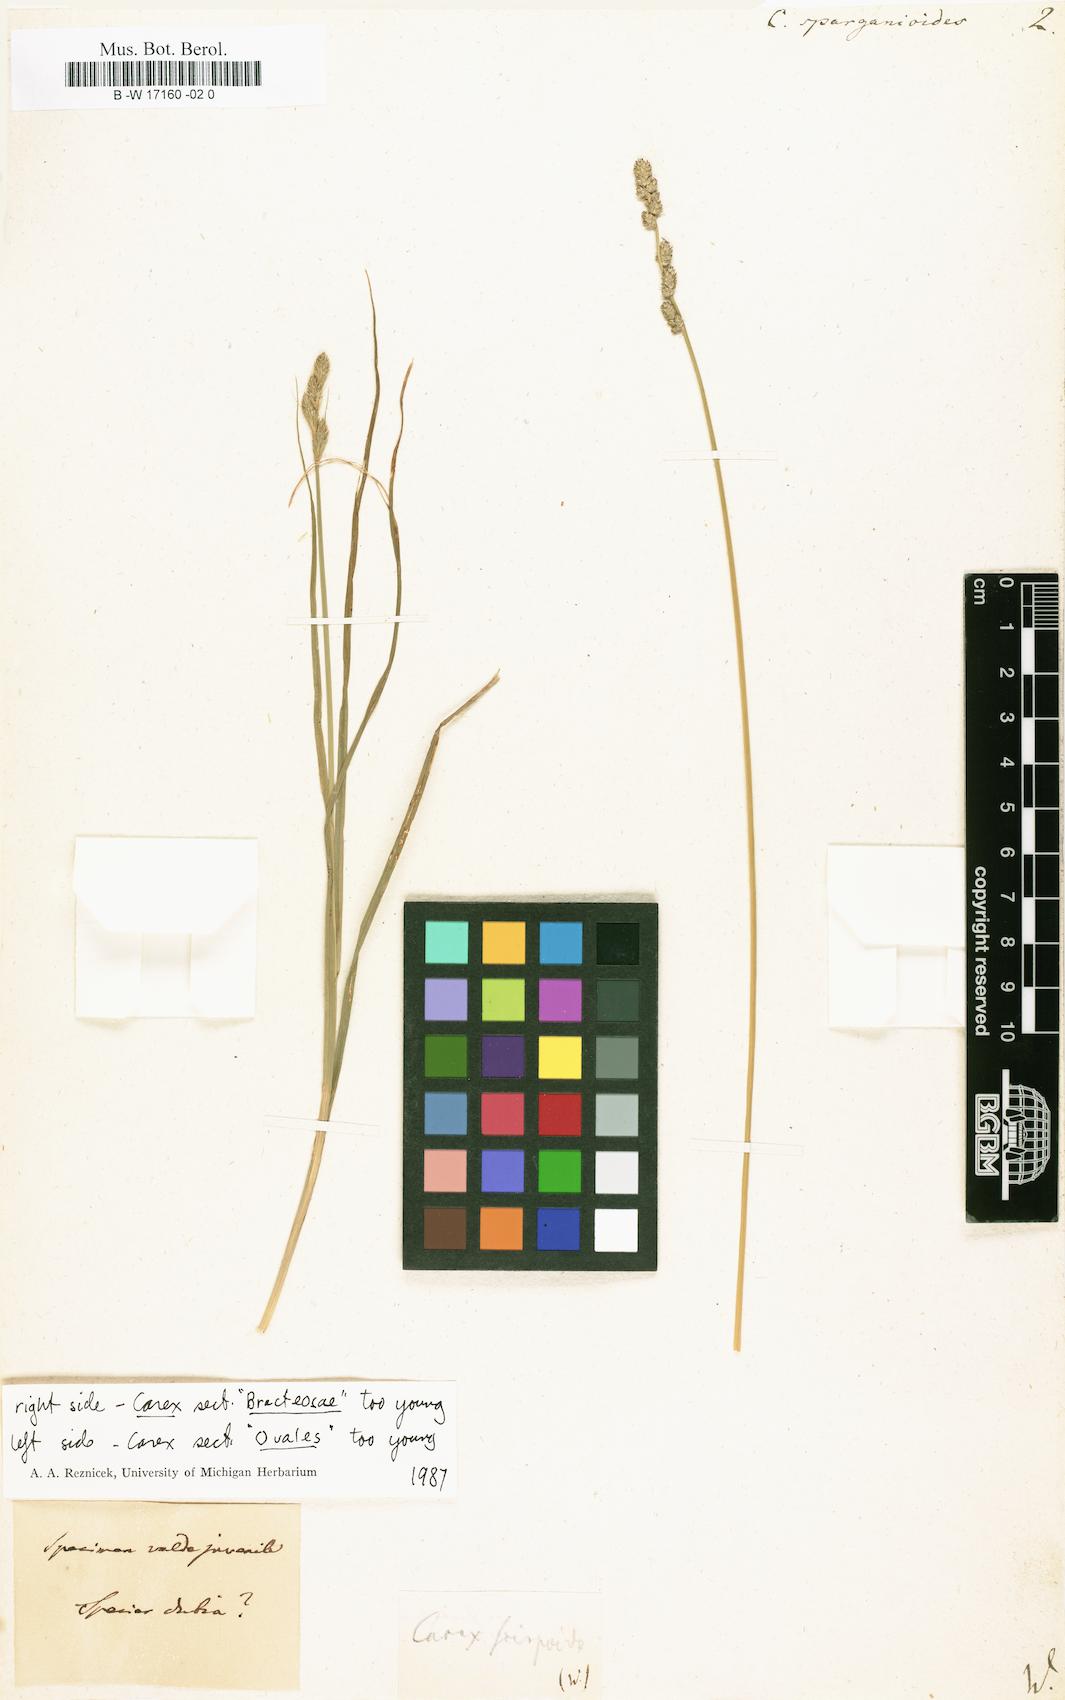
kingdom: Plantae
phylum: Tracheophyta
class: Liliopsida
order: Poales
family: Cyperaceae
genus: Carex
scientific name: Carex sparganioides
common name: Burreed sedge
